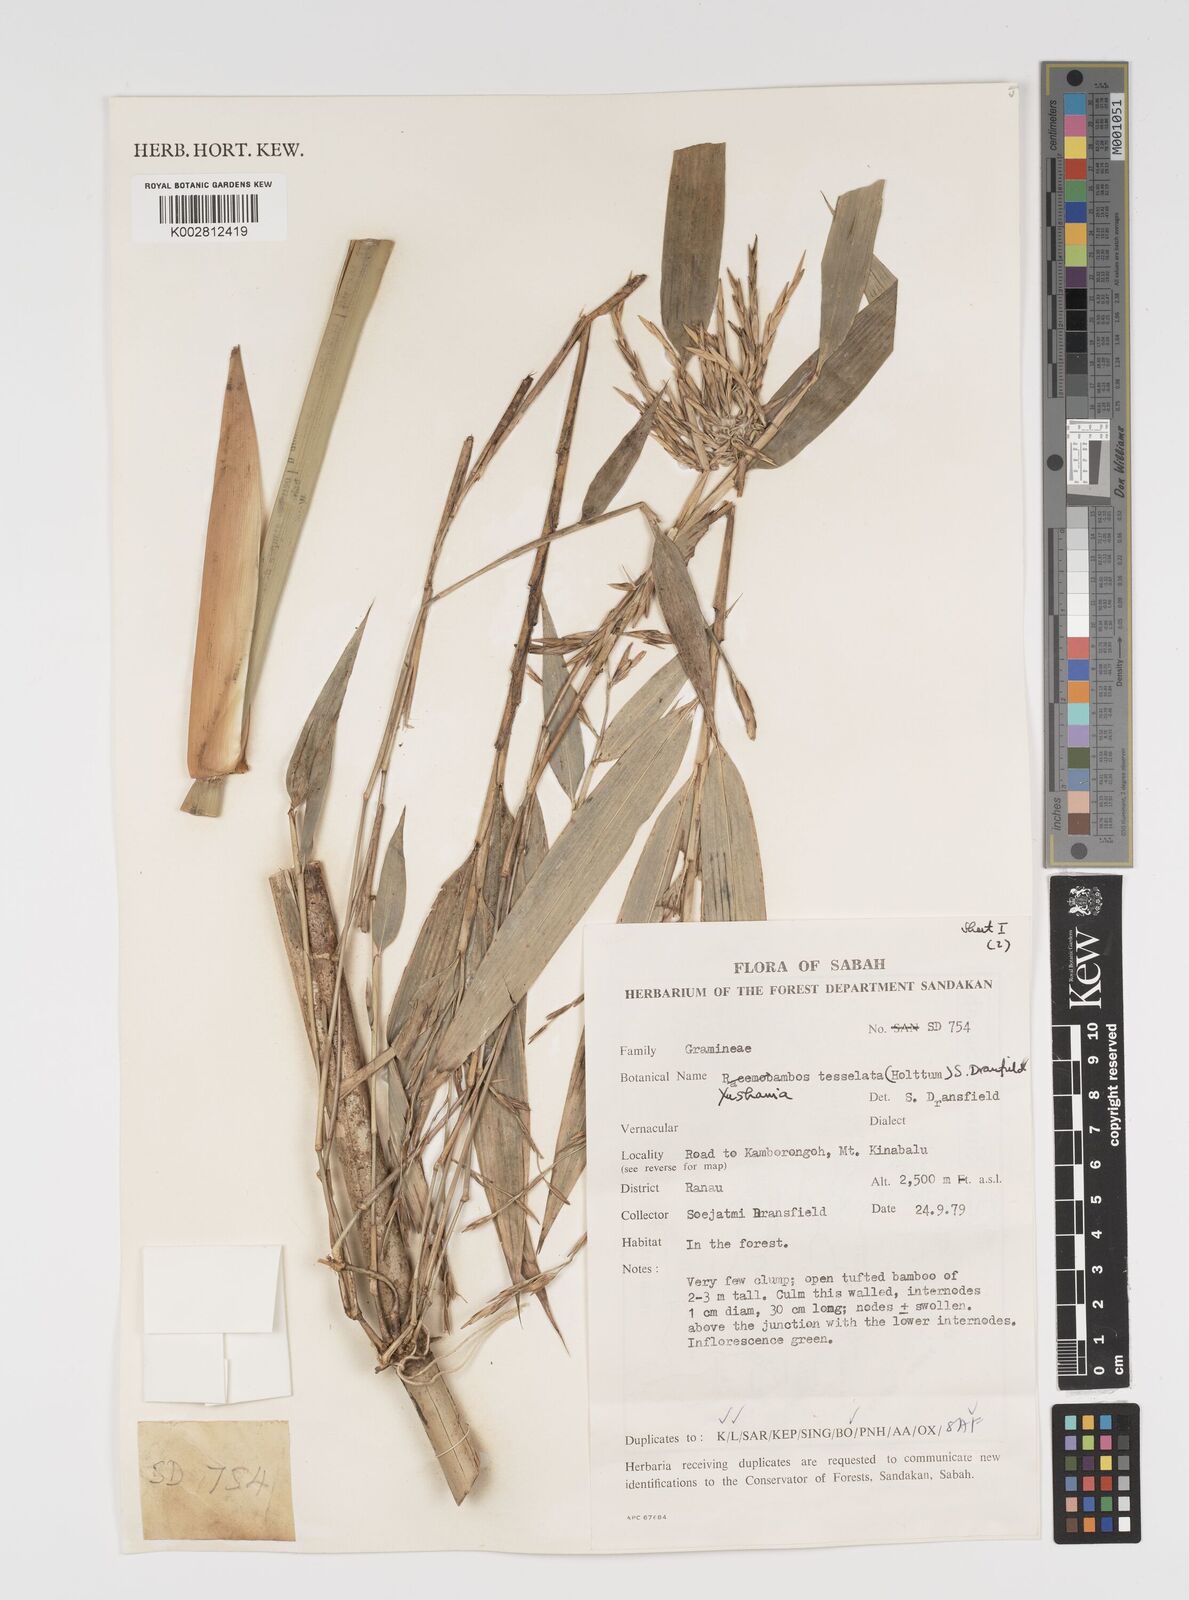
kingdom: Plantae
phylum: Tracheophyta
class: Liliopsida
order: Poales
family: Poaceae
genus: Yushania
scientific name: Yushania tessellata
